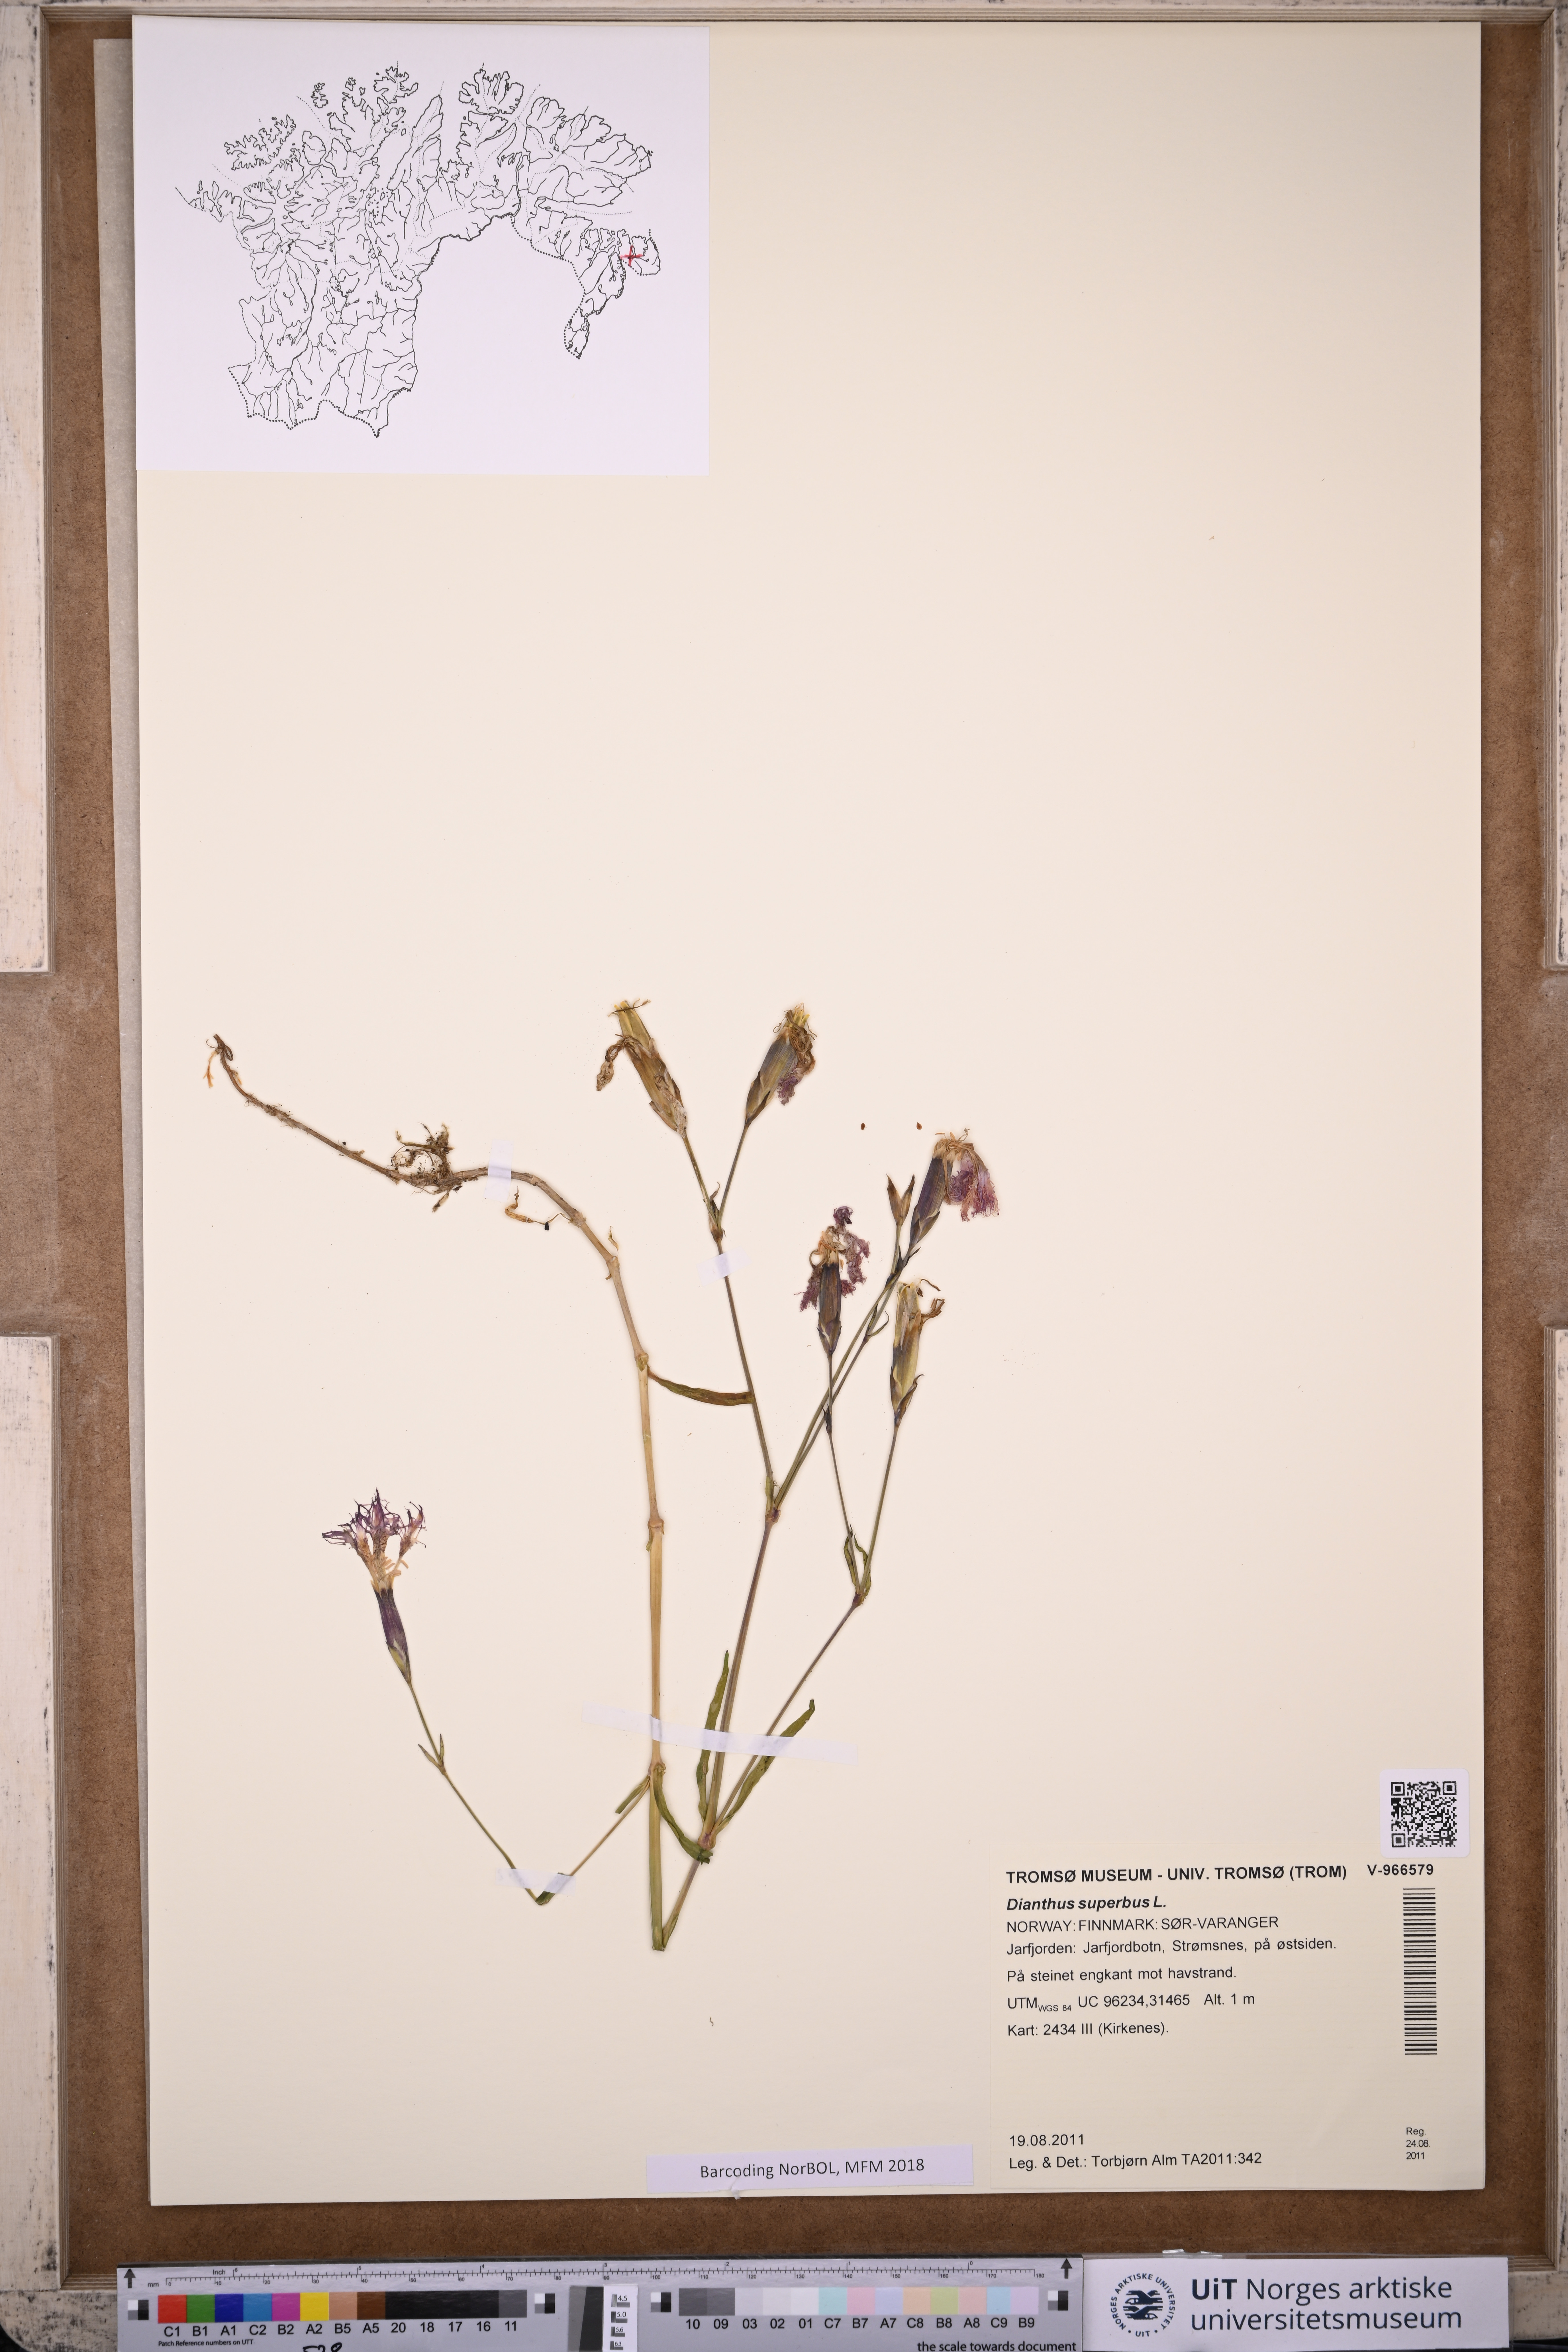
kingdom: Plantae
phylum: Tracheophyta
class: Magnoliopsida
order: Caryophyllales
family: Caryophyllaceae
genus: Dianthus
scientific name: Dianthus superbus
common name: Fringed pink
